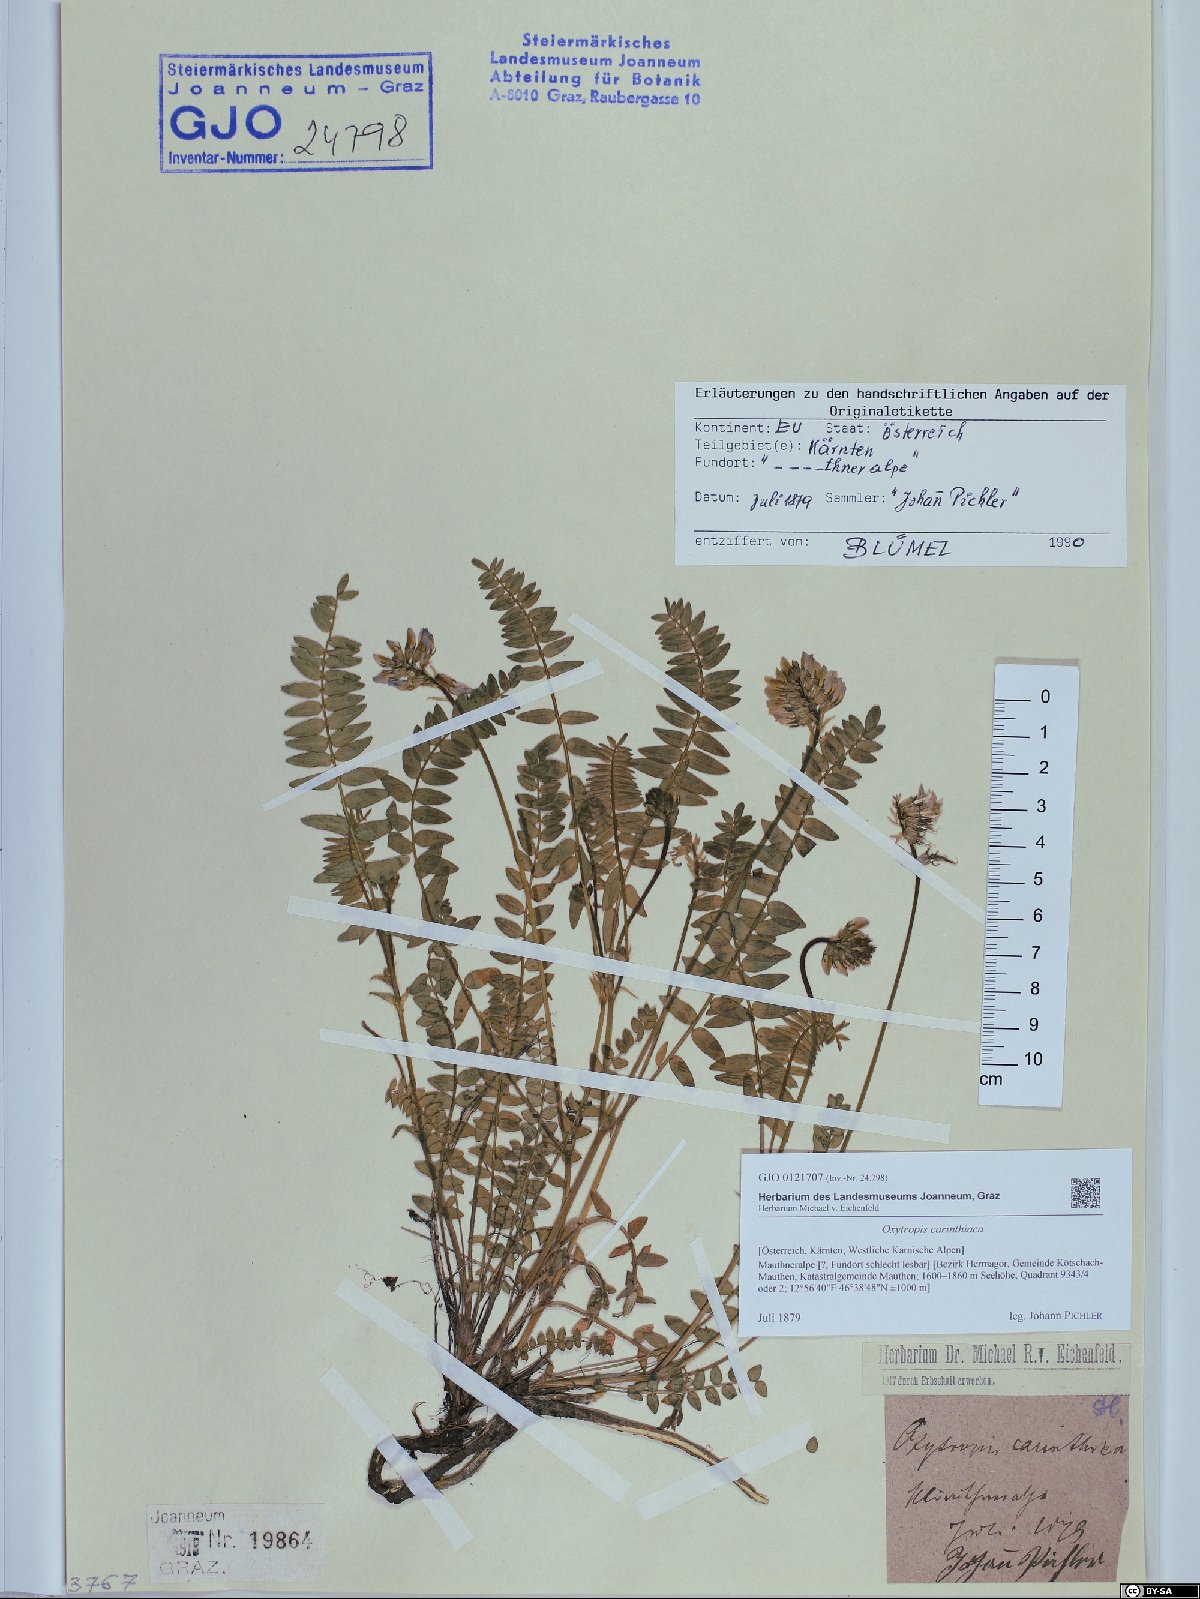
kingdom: Plantae
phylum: Tracheophyta
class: Magnoliopsida
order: Fabales
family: Fabaceae
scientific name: Fabaceae
